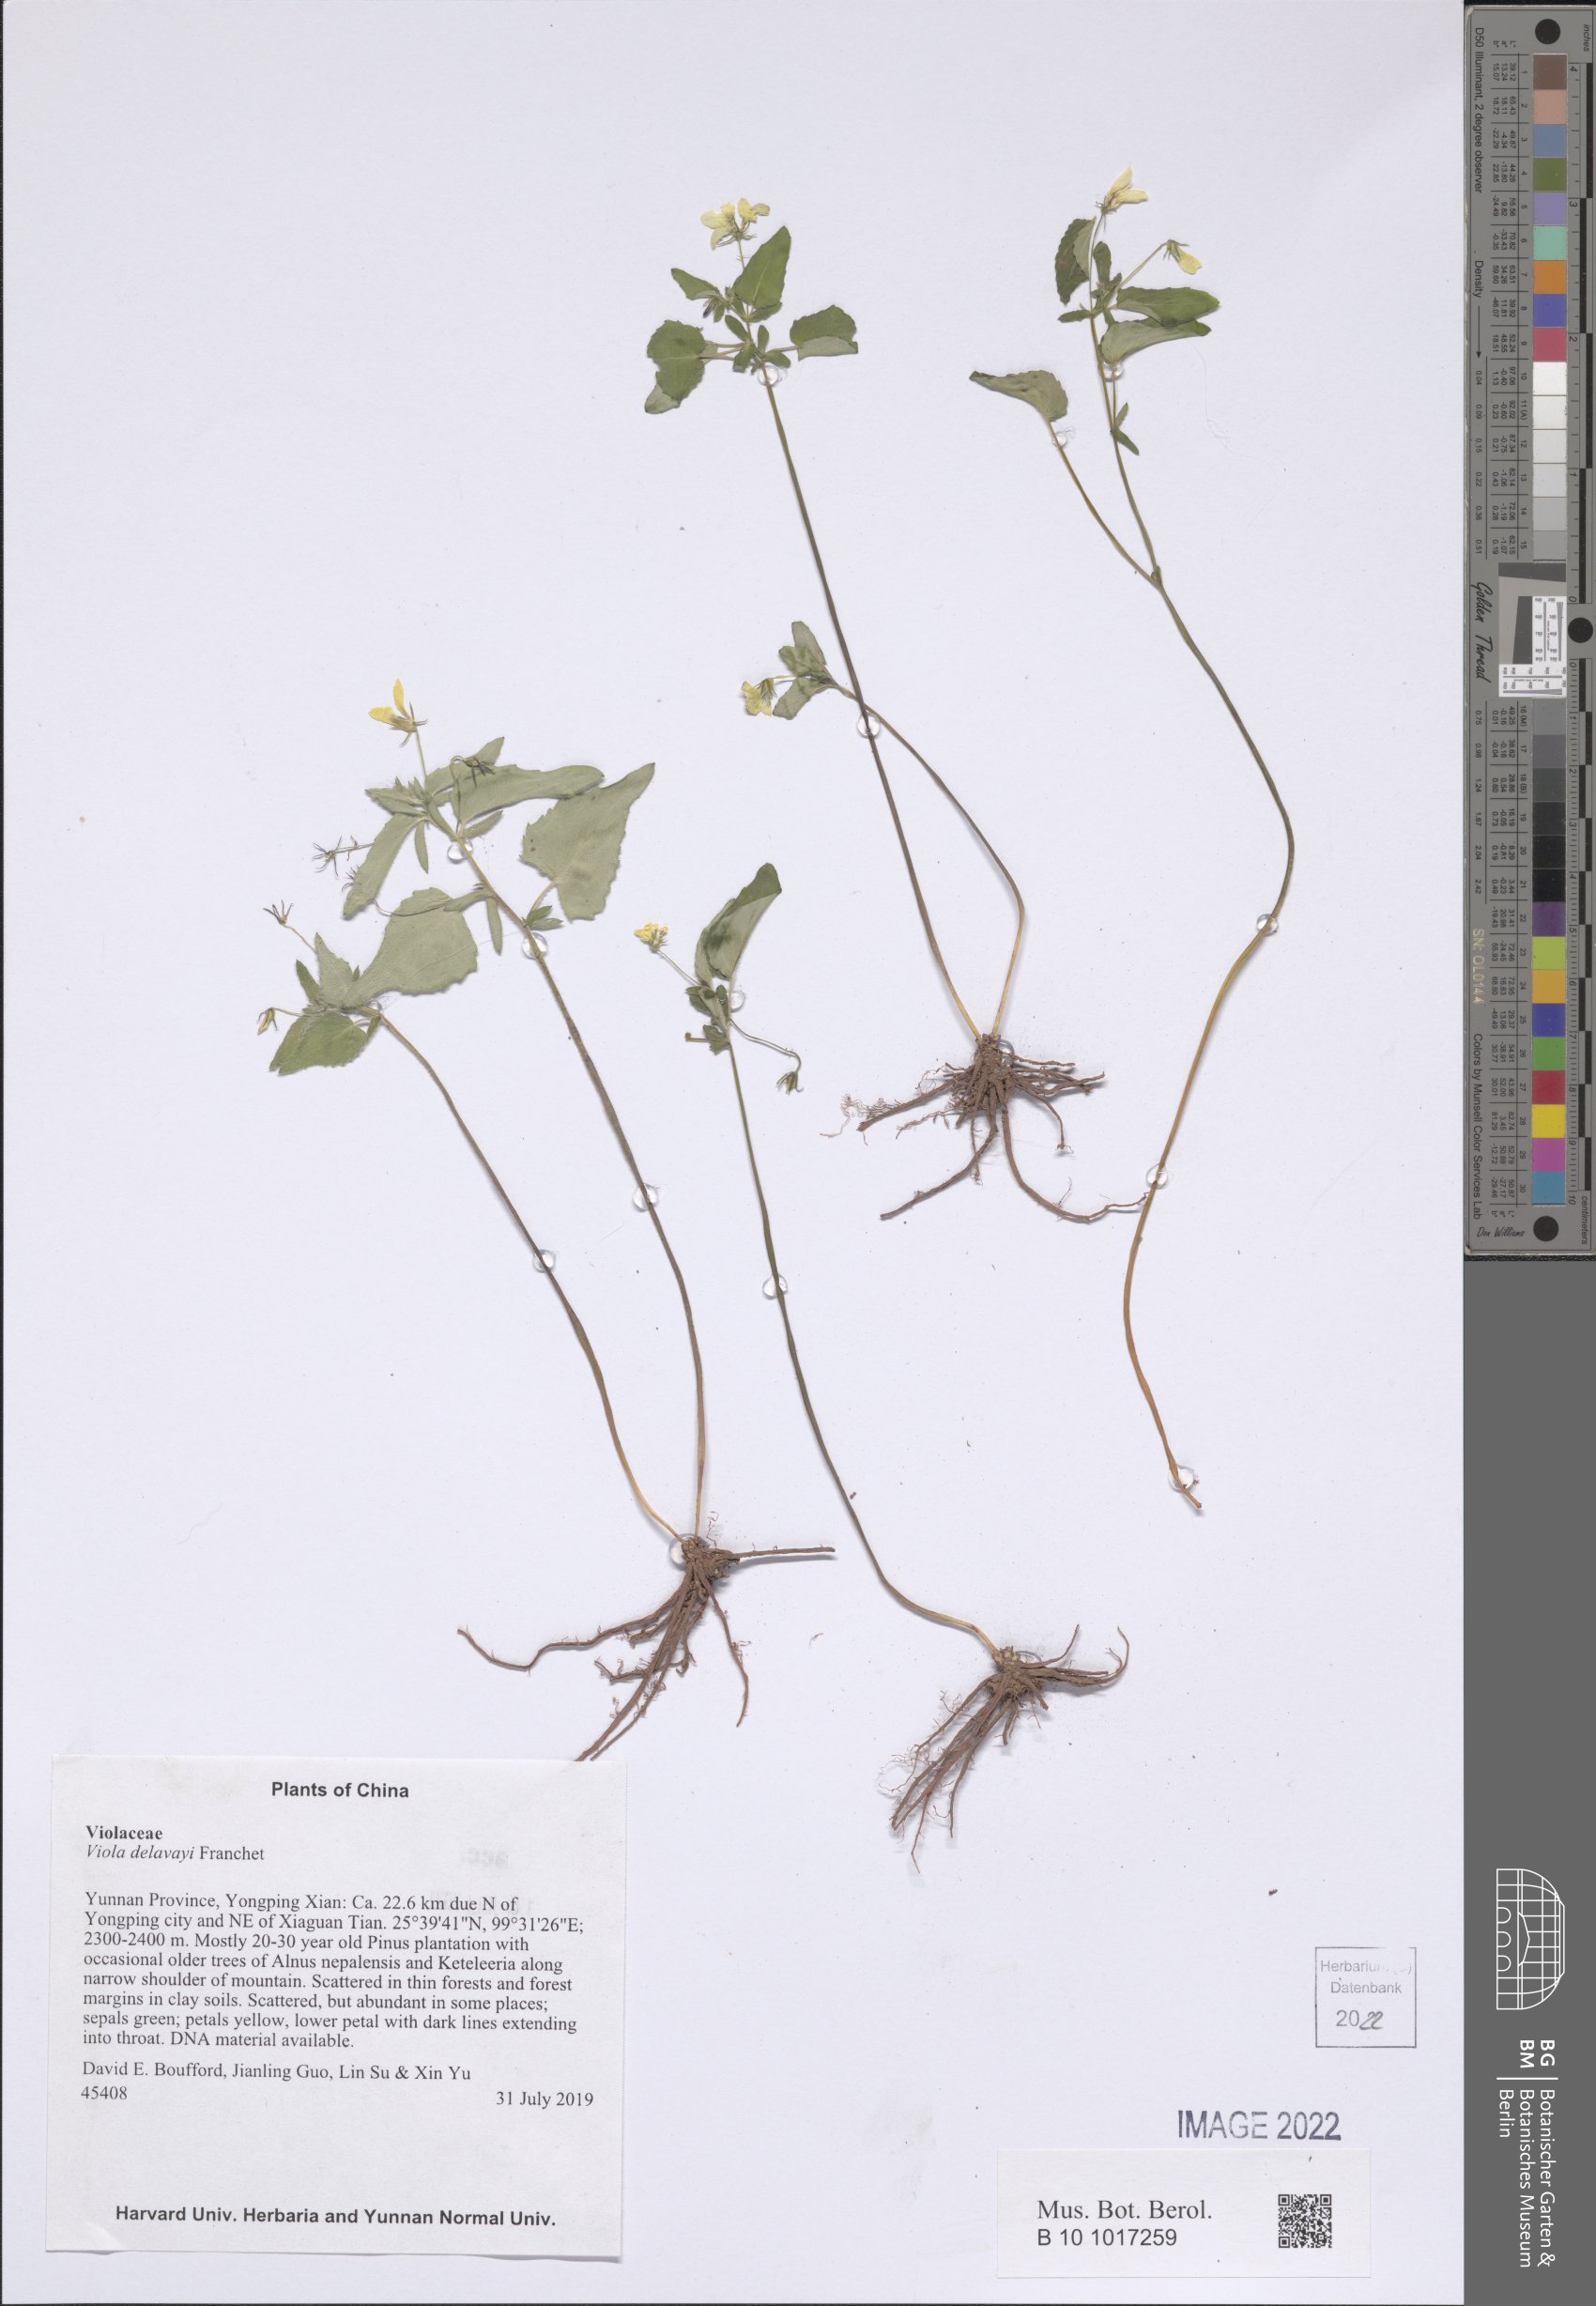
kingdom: Plantae
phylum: Tracheophyta
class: Magnoliopsida
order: Malpighiales
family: Violaceae
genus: Viola
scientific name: Viola delavayi
